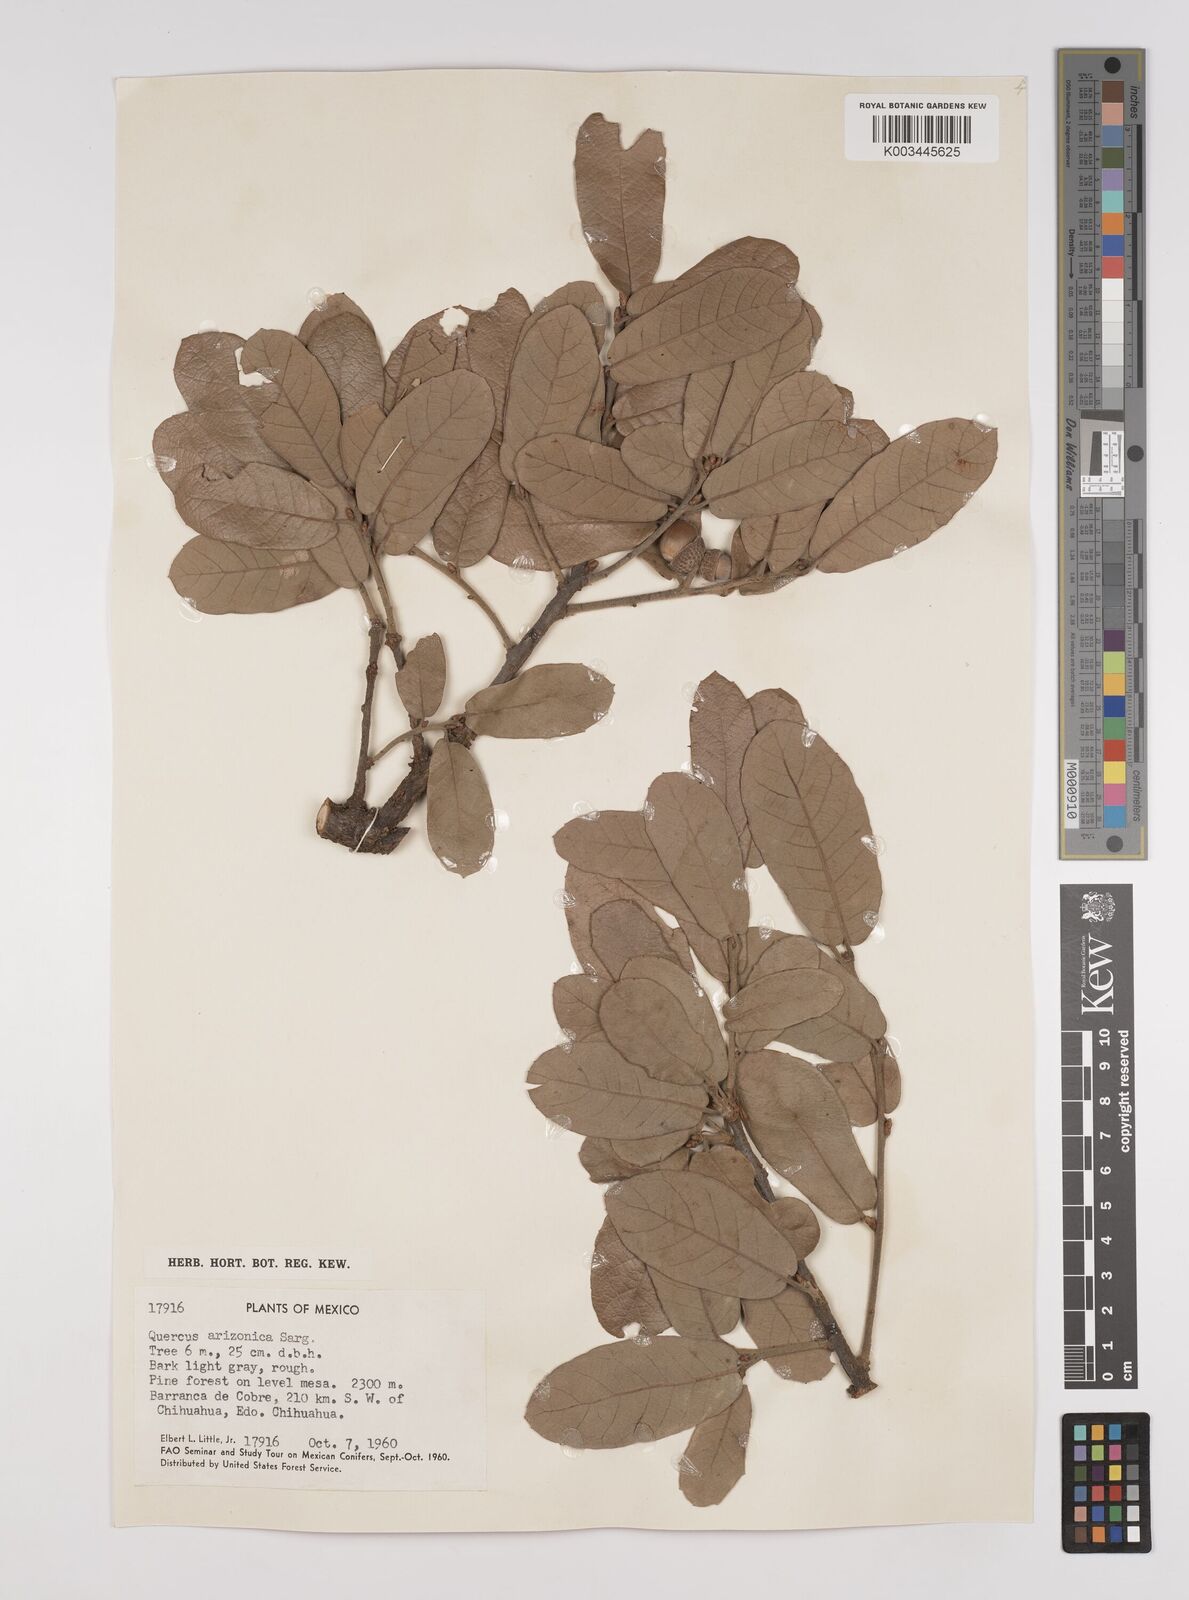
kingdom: Plantae
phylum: Tracheophyta
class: Magnoliopsida
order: Fagales
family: Fagaceae
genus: Quercus
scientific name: Quercus arizonica
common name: Arizona white oak
